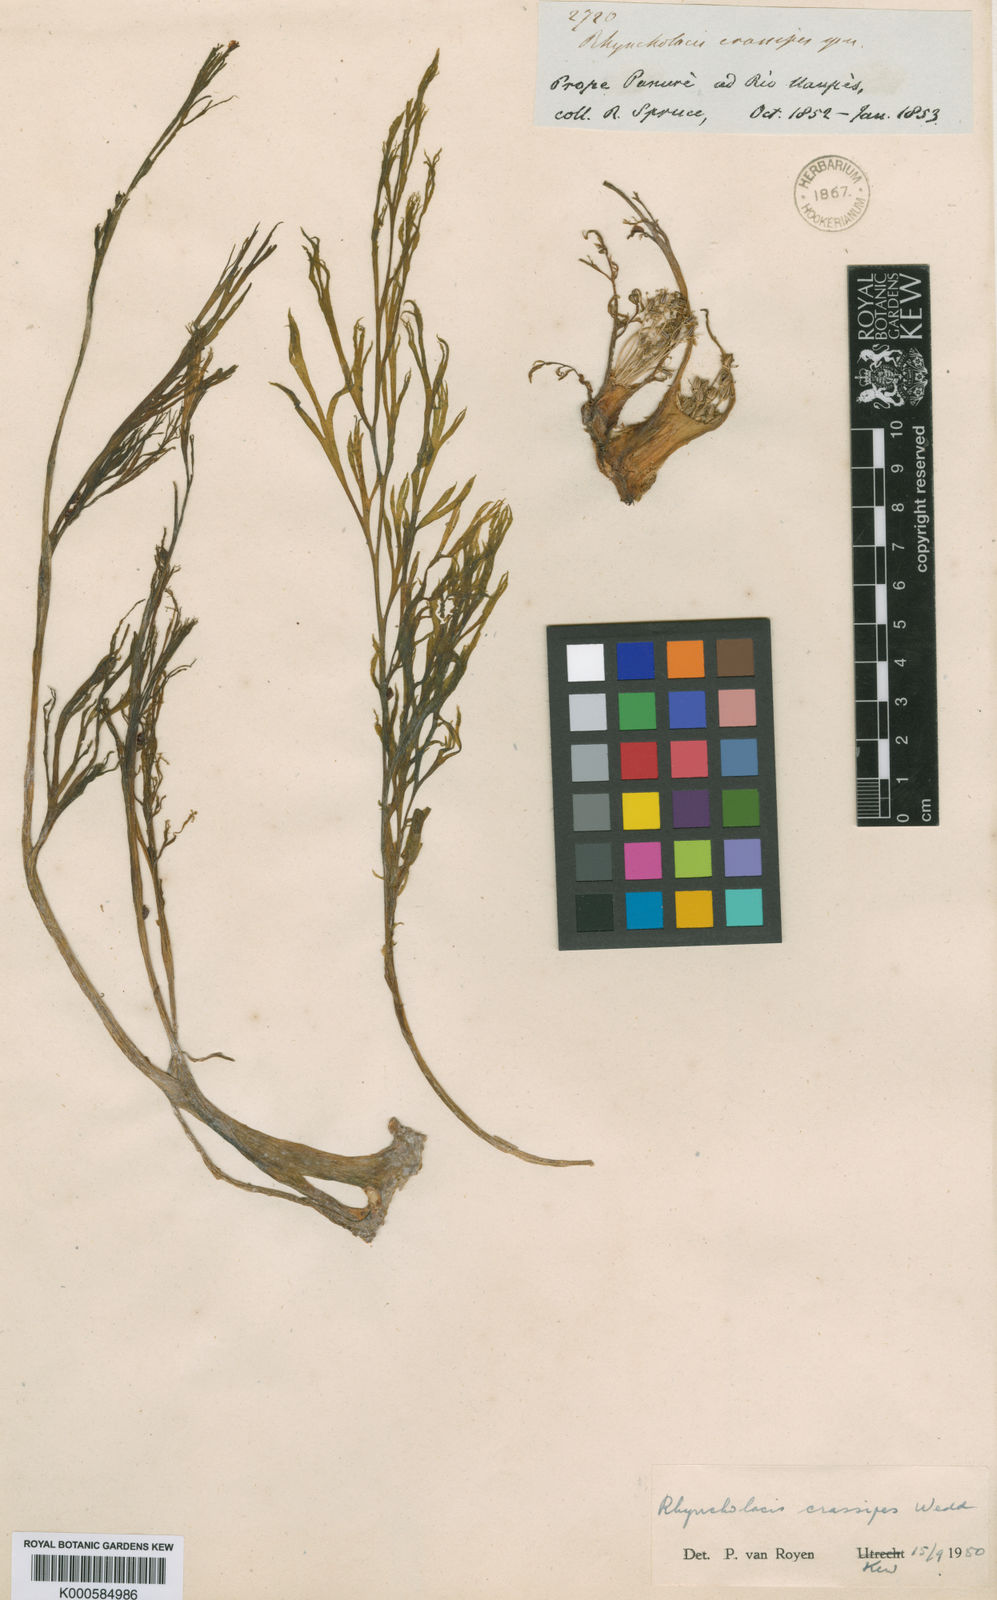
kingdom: Plantae
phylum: Tracheophyta
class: Magnoliopsida
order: Malpighiales
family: Podostemaceae
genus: Rhyncholacis
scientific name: Rhyncholacis
